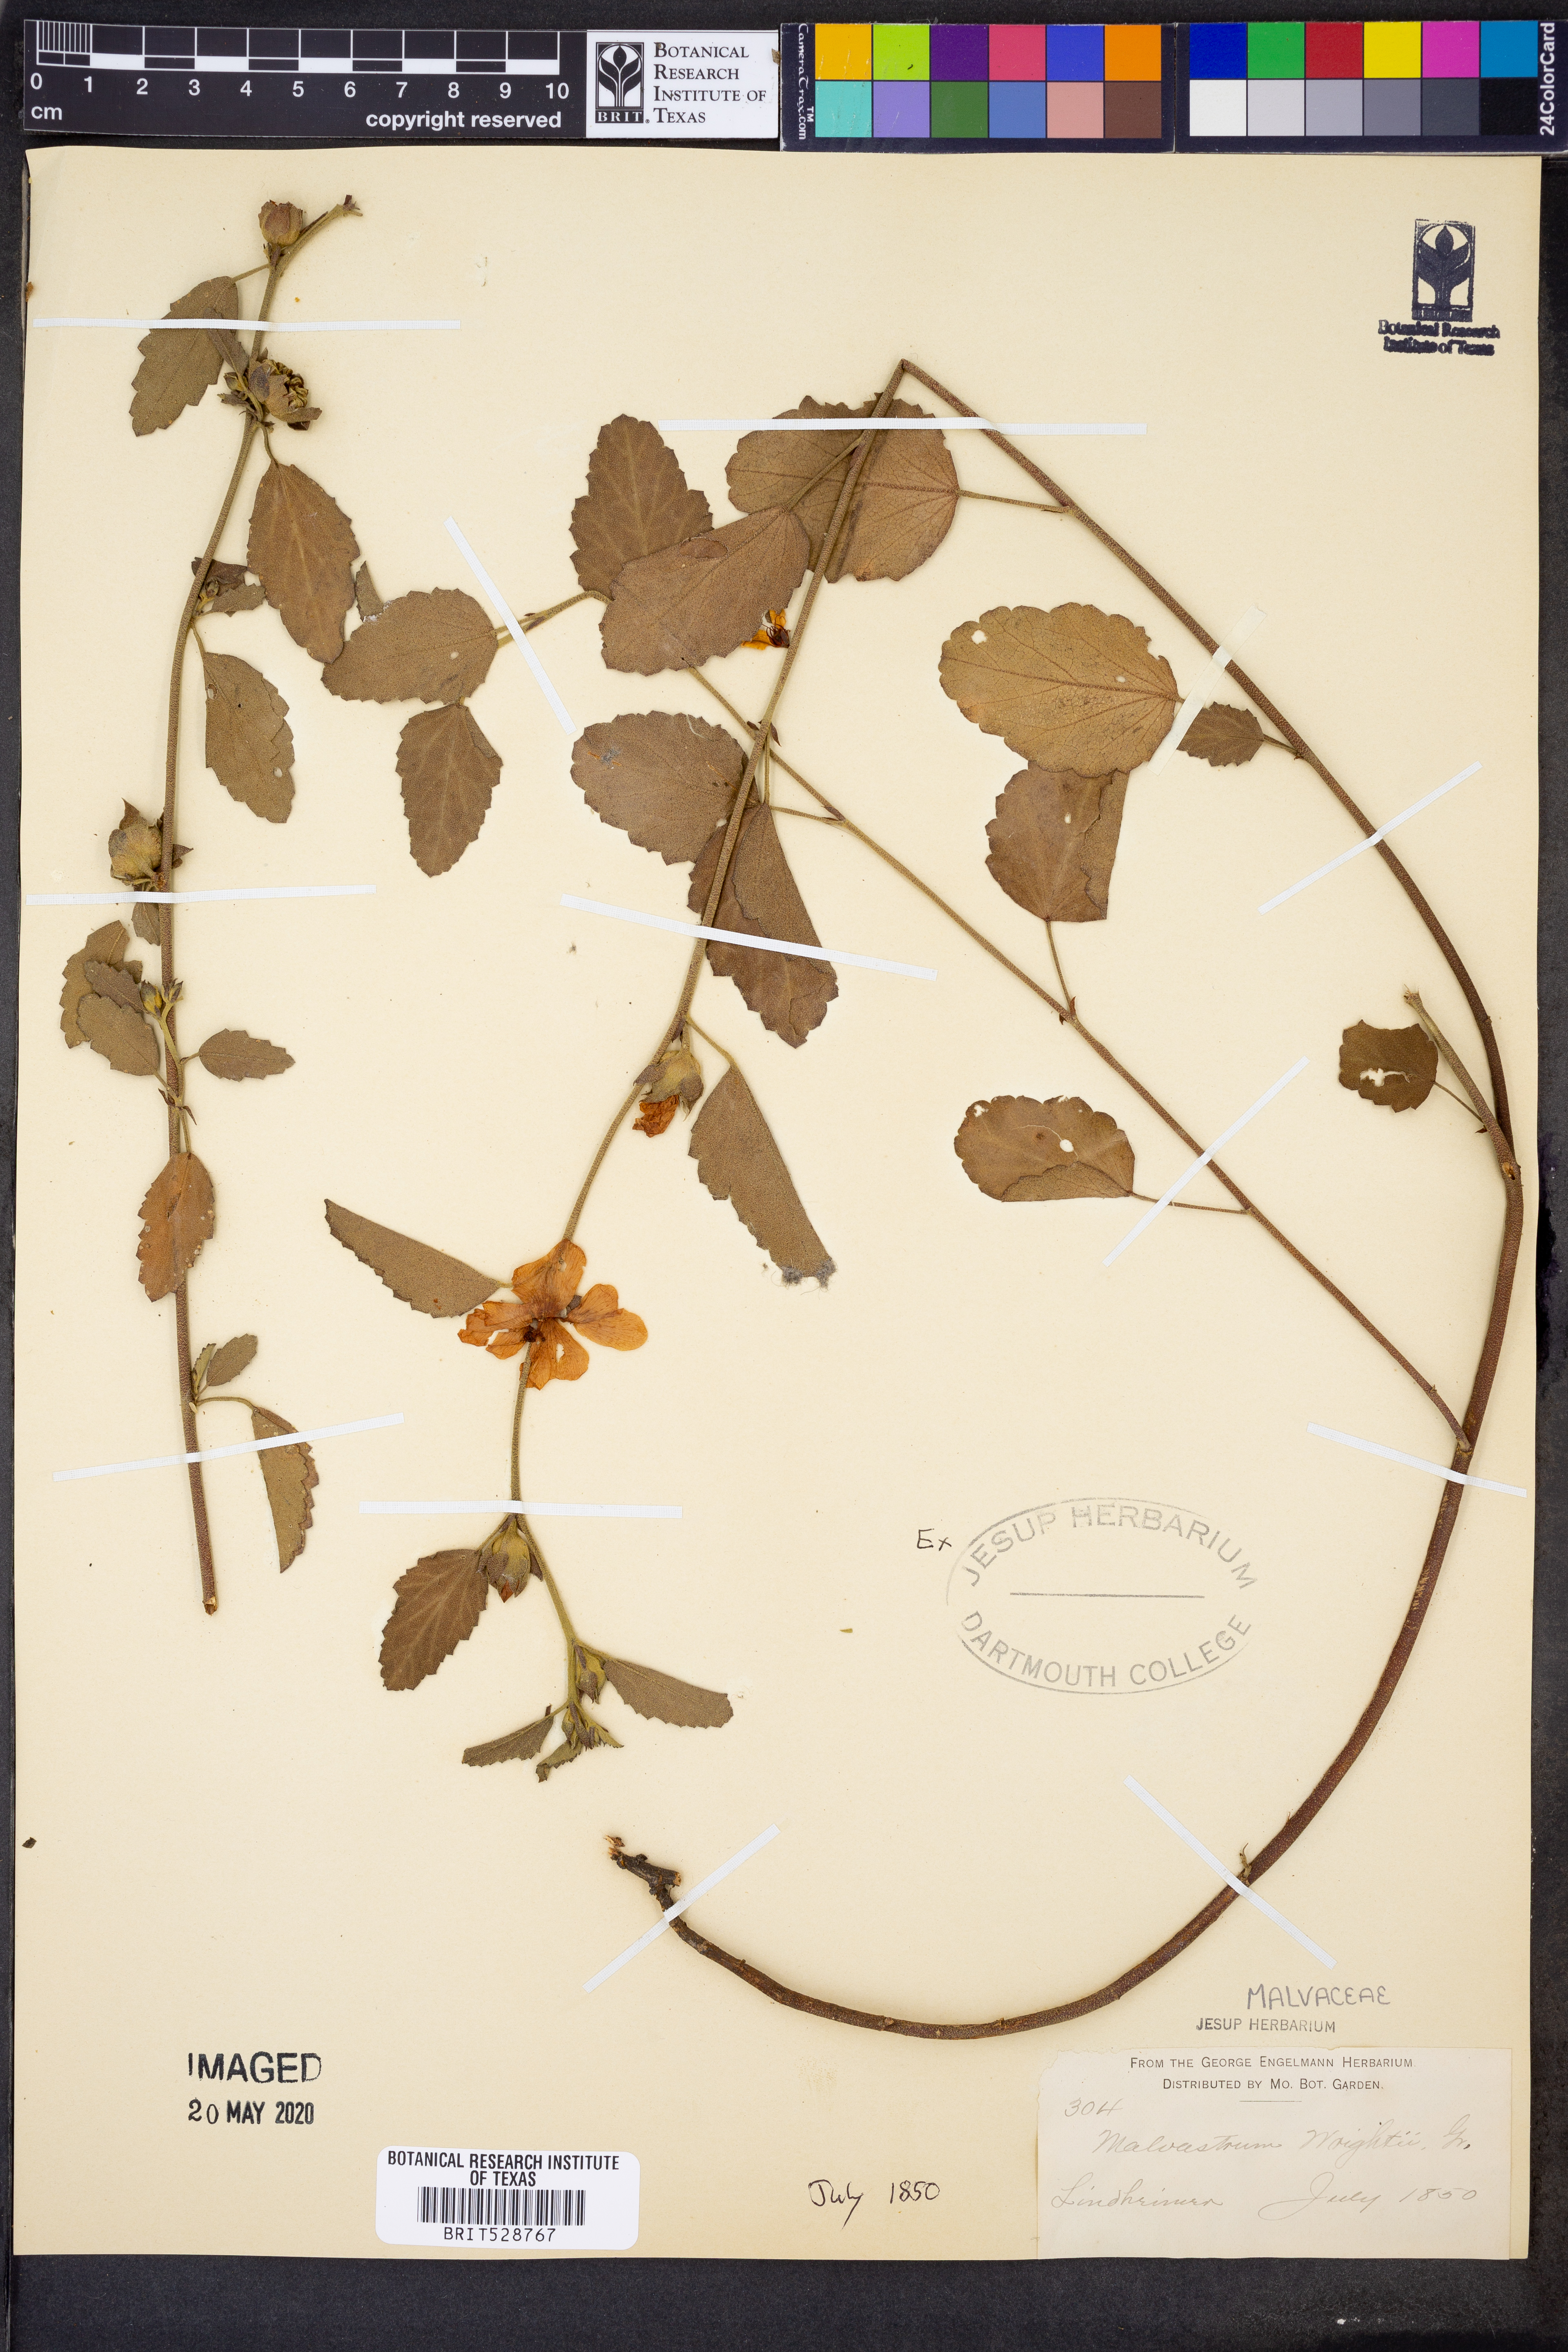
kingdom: Plantae
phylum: Tracheophyta
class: Magnoliopsida
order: Malvales
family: Malvaceae
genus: Malvastrum
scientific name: Malvastrum aurantiacum
